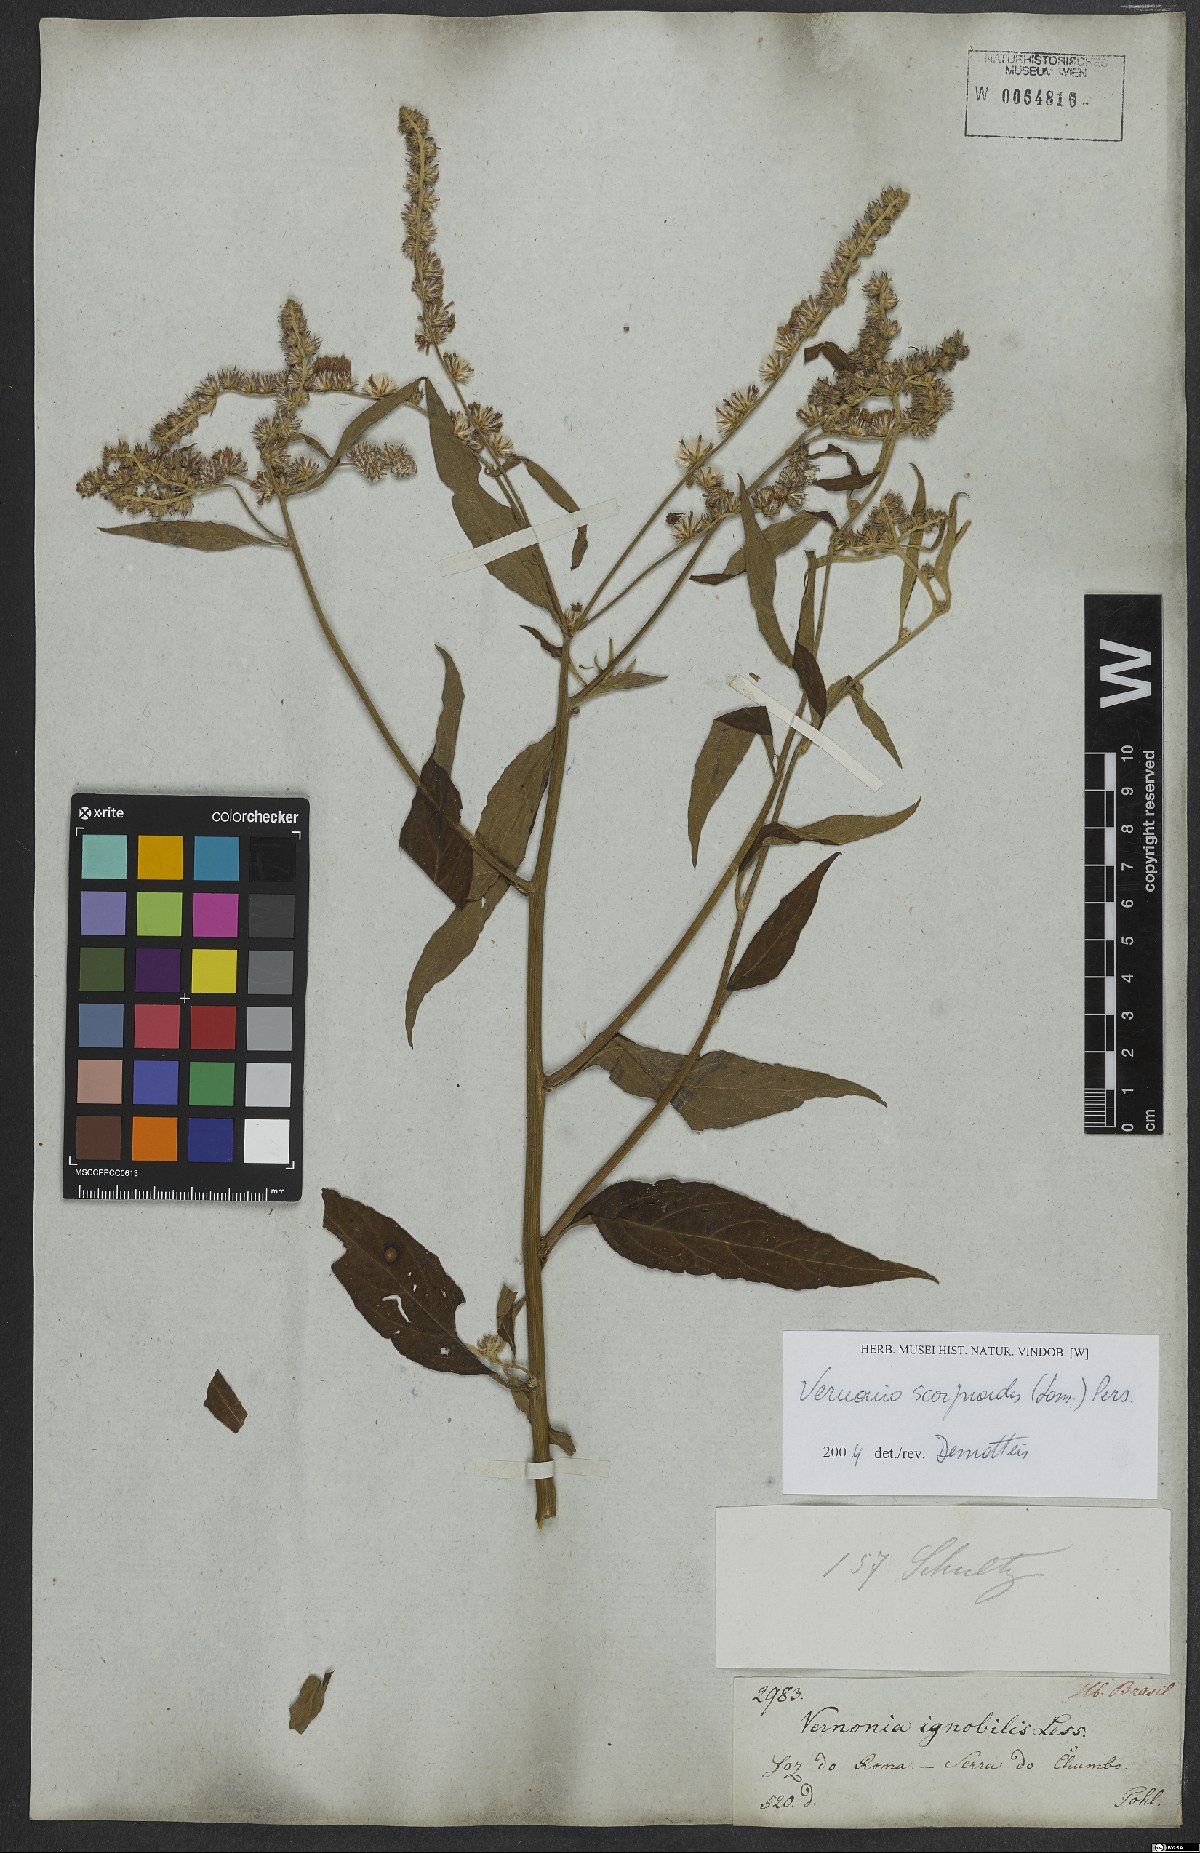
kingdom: Plantae
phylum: Tracheophyta
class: Magnoliopsida
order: Asterales
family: Asteraceae
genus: Cyrtocymura
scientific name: Cyrtocymura scorpioides
